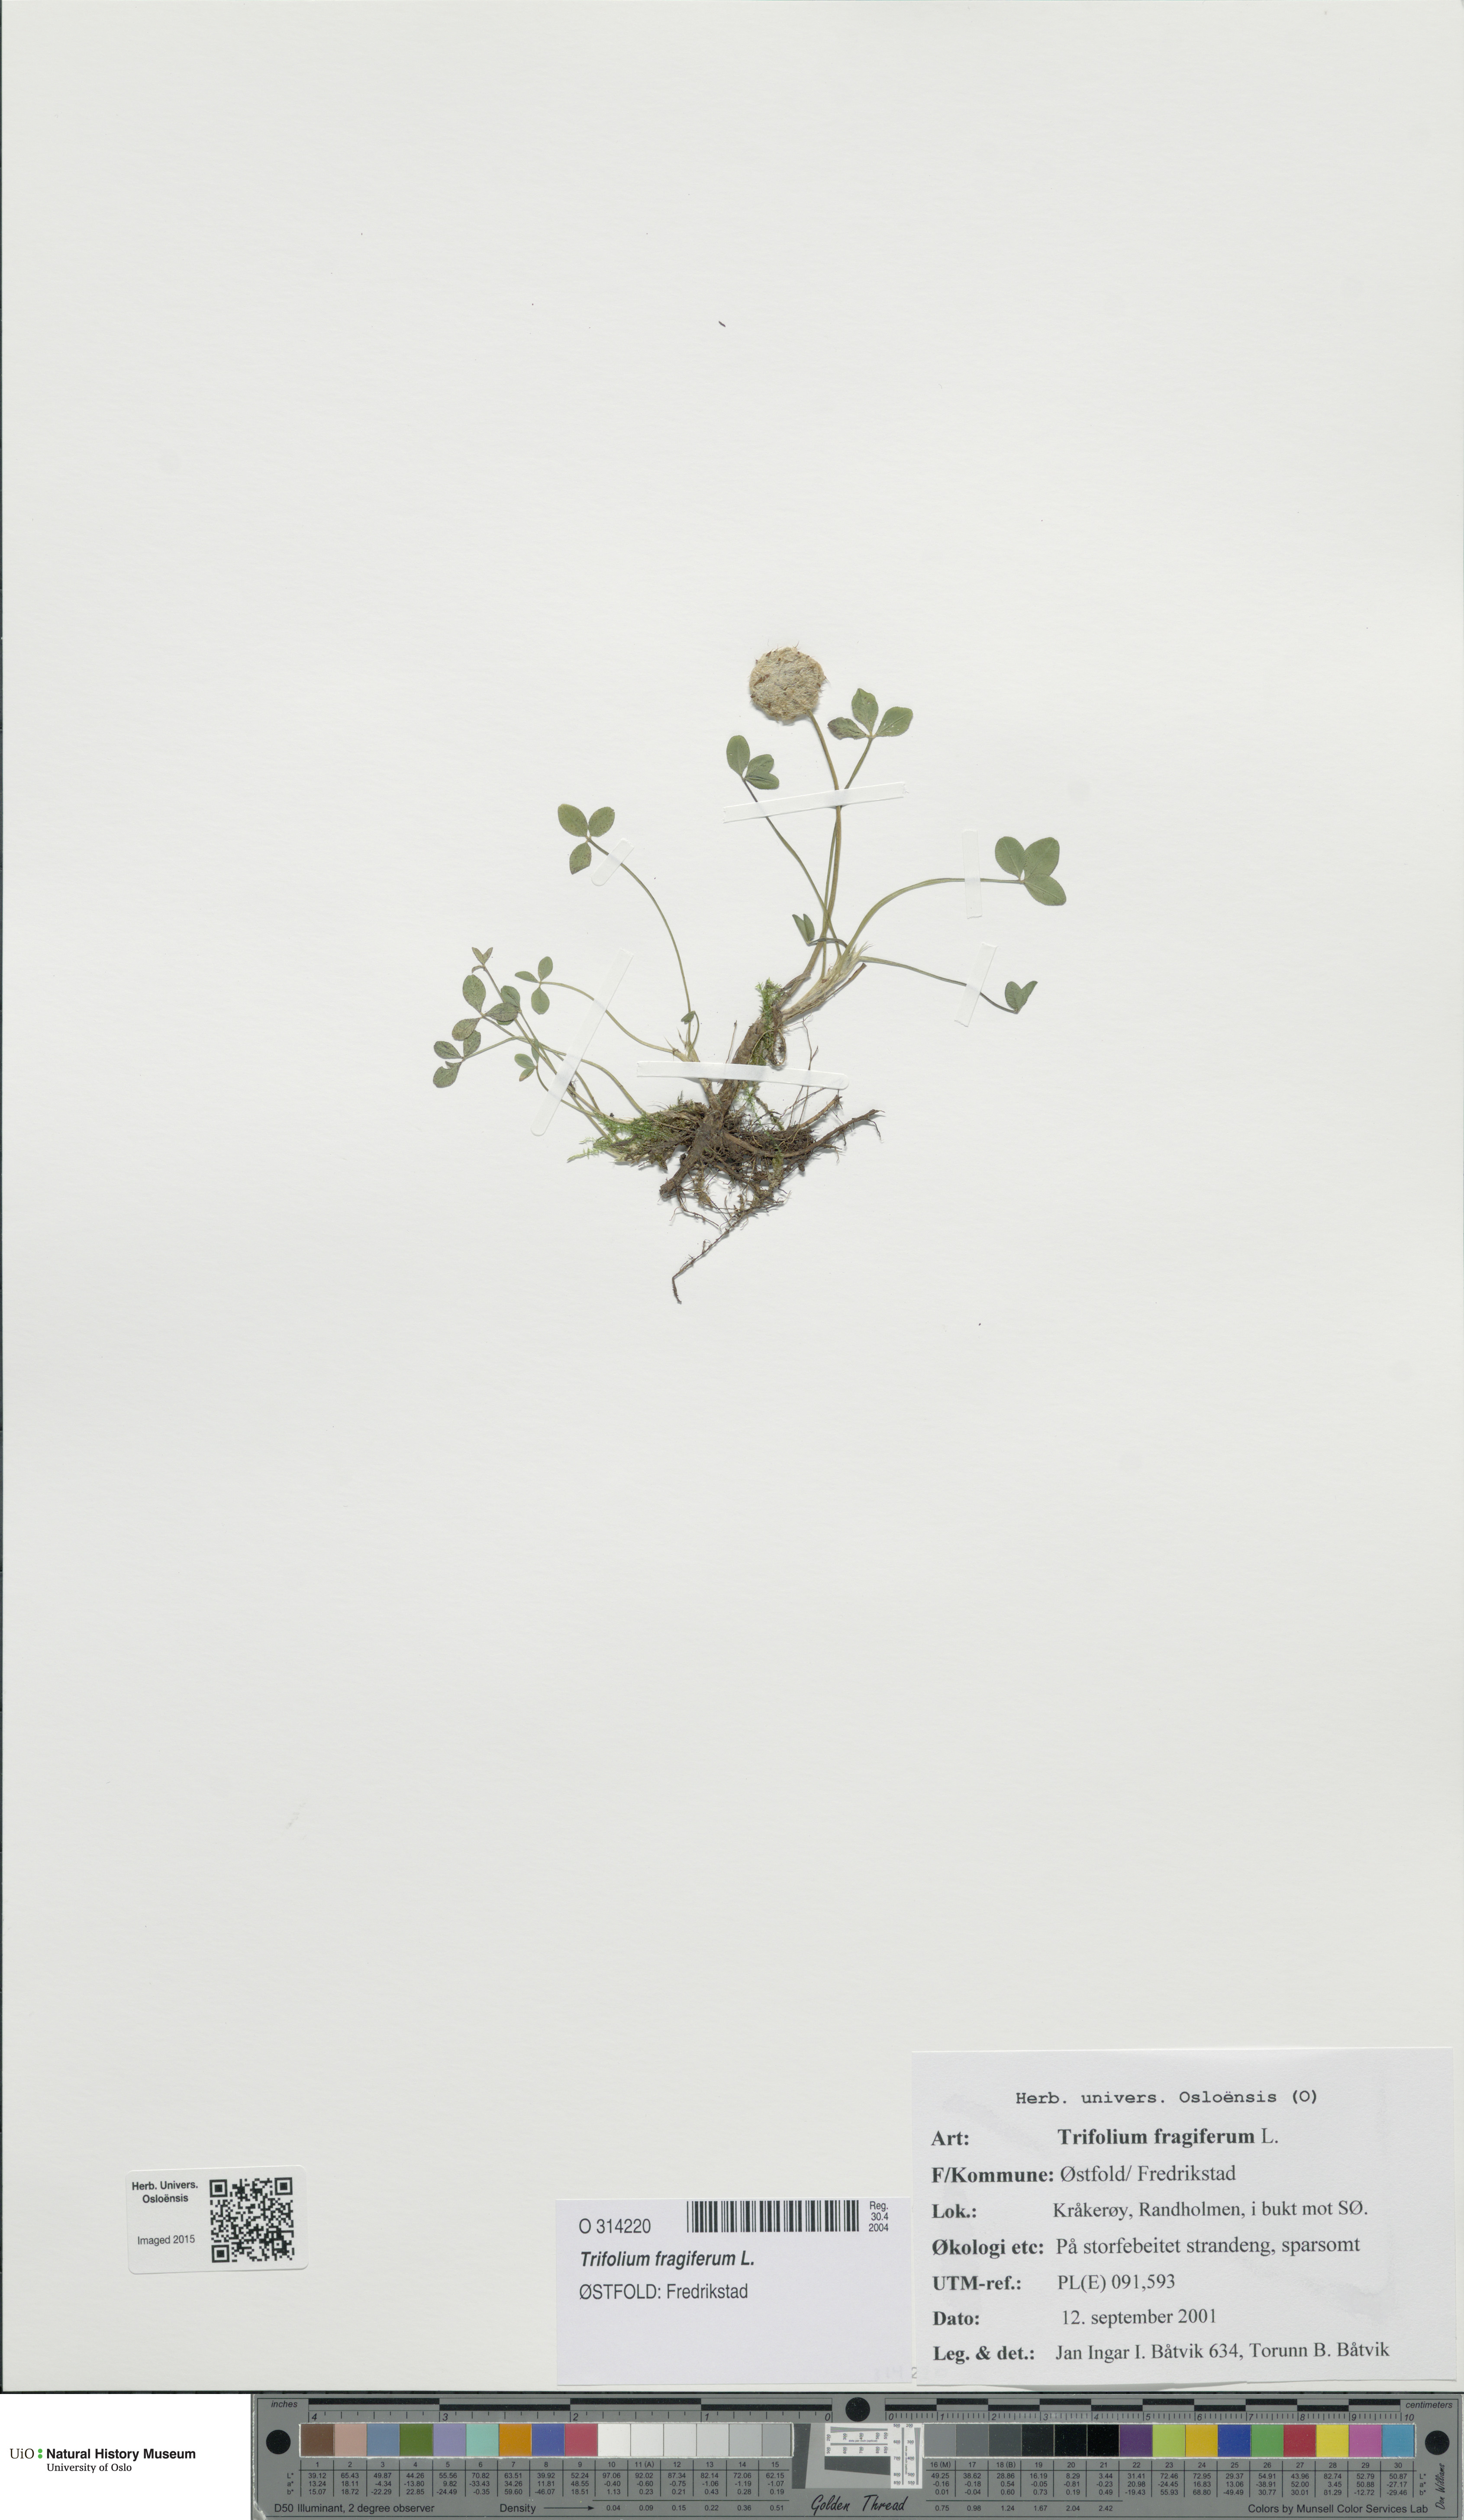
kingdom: Plantae
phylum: Tracheophyta
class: Magnoliopsida
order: Fabales
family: Fabaceae
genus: Trifolium
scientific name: Trifolium fragiferum
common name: Strawberry clover
